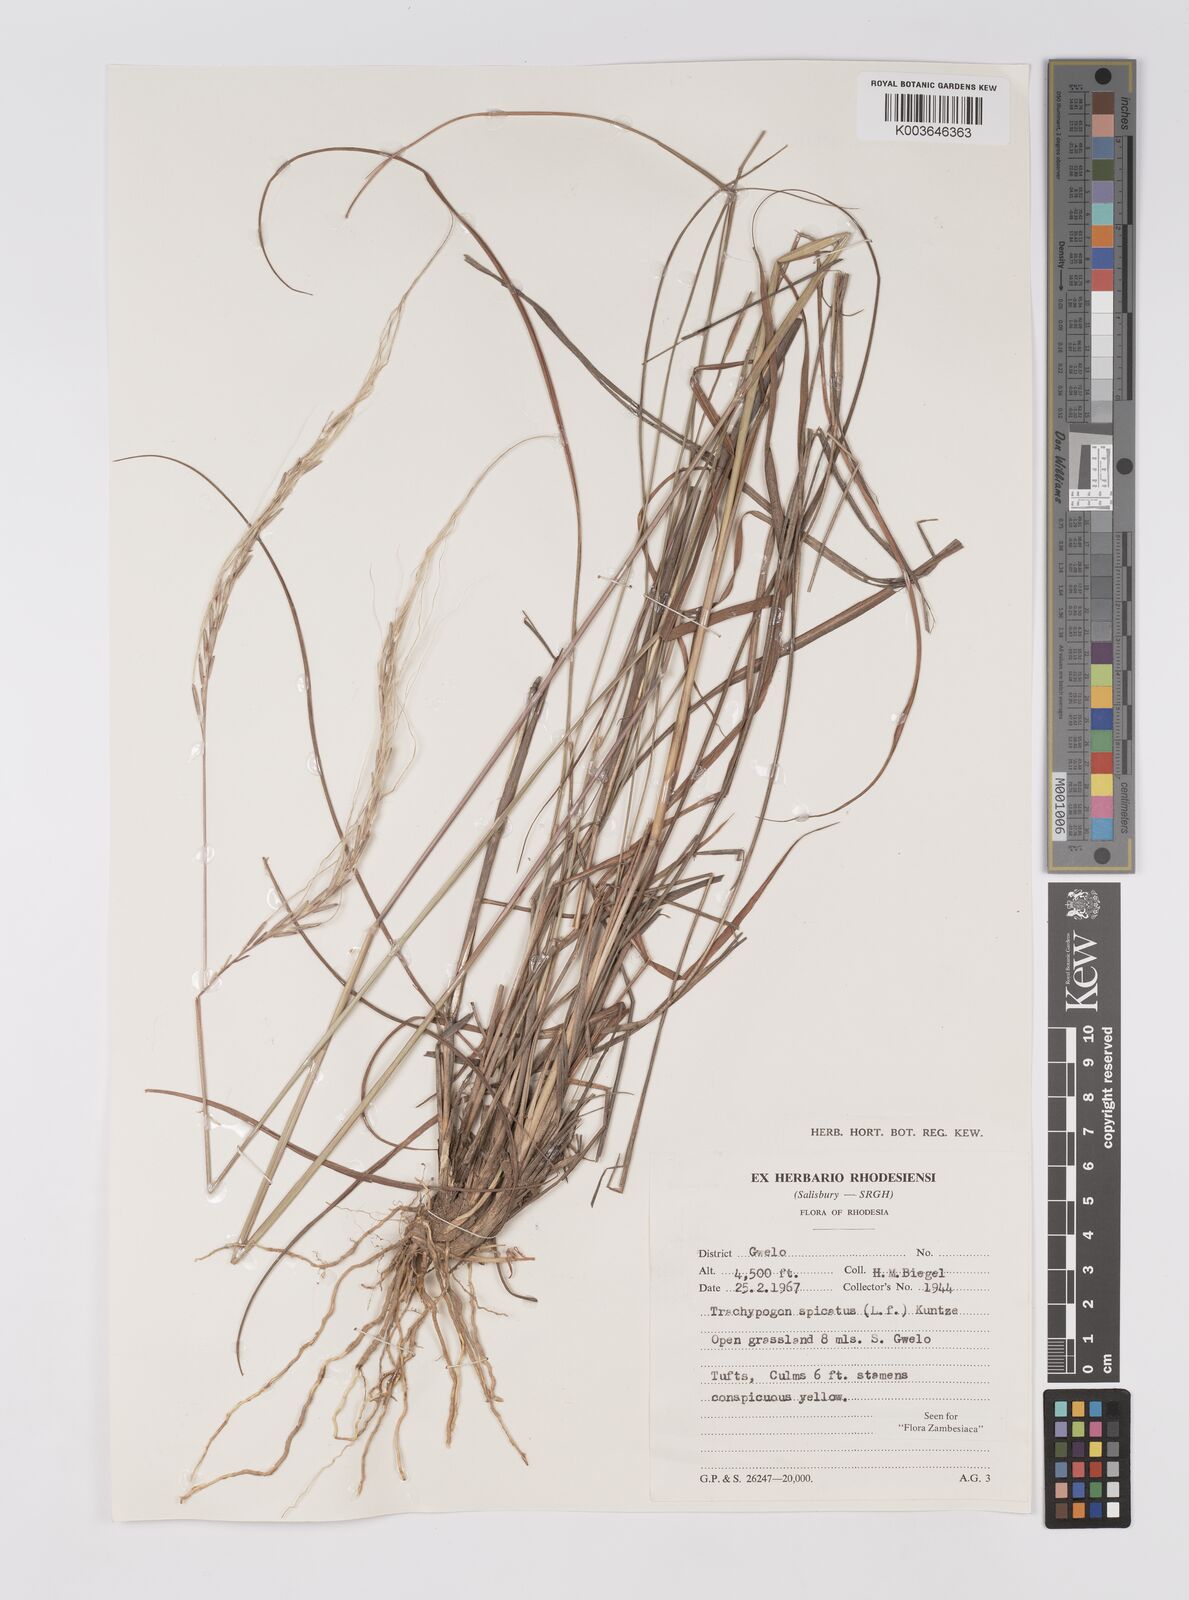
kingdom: Plantae
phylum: Tracheophyta
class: Liliopsida
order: Poales
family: Poaceae
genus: Trachypogon
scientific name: Trachypogon spicatus
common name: Crinkle-awn
